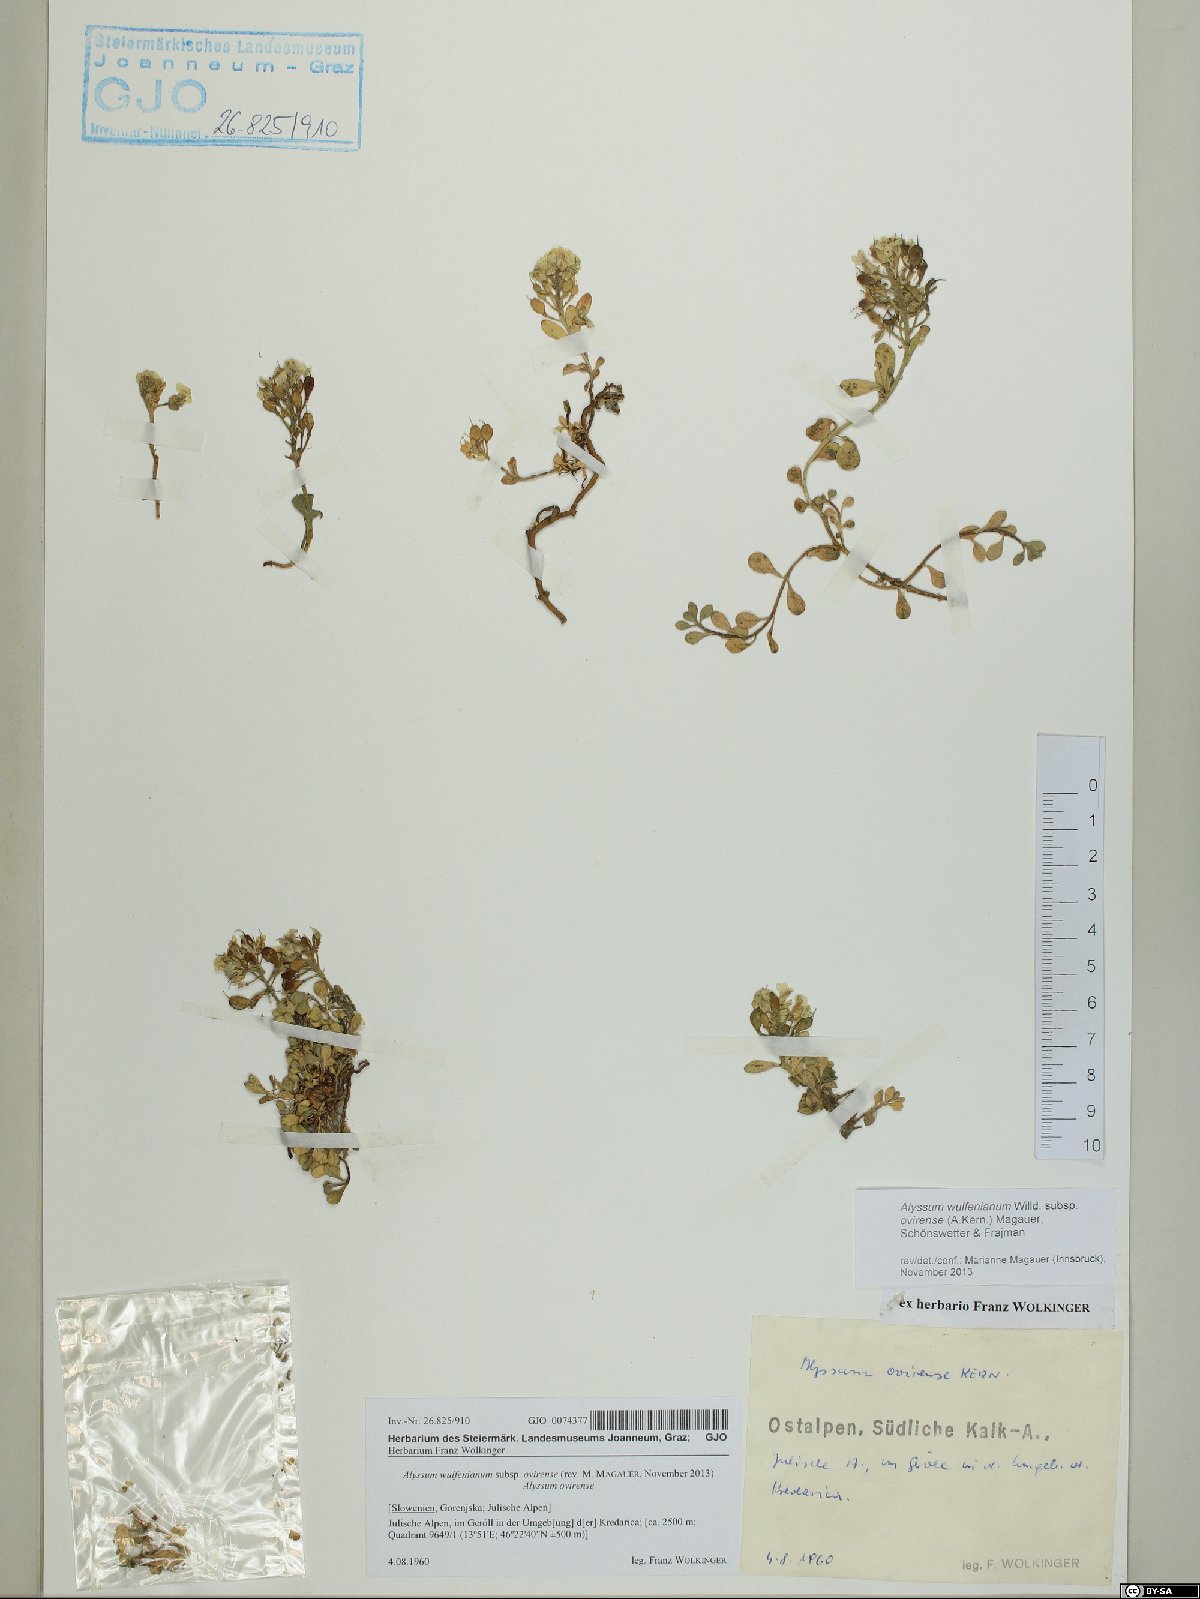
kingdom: Plantae
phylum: Tracheophyta
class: Magnoliopsida
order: Brassicales
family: Brassicaceae
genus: Alyssum
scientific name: Alyssum wulfenianum
